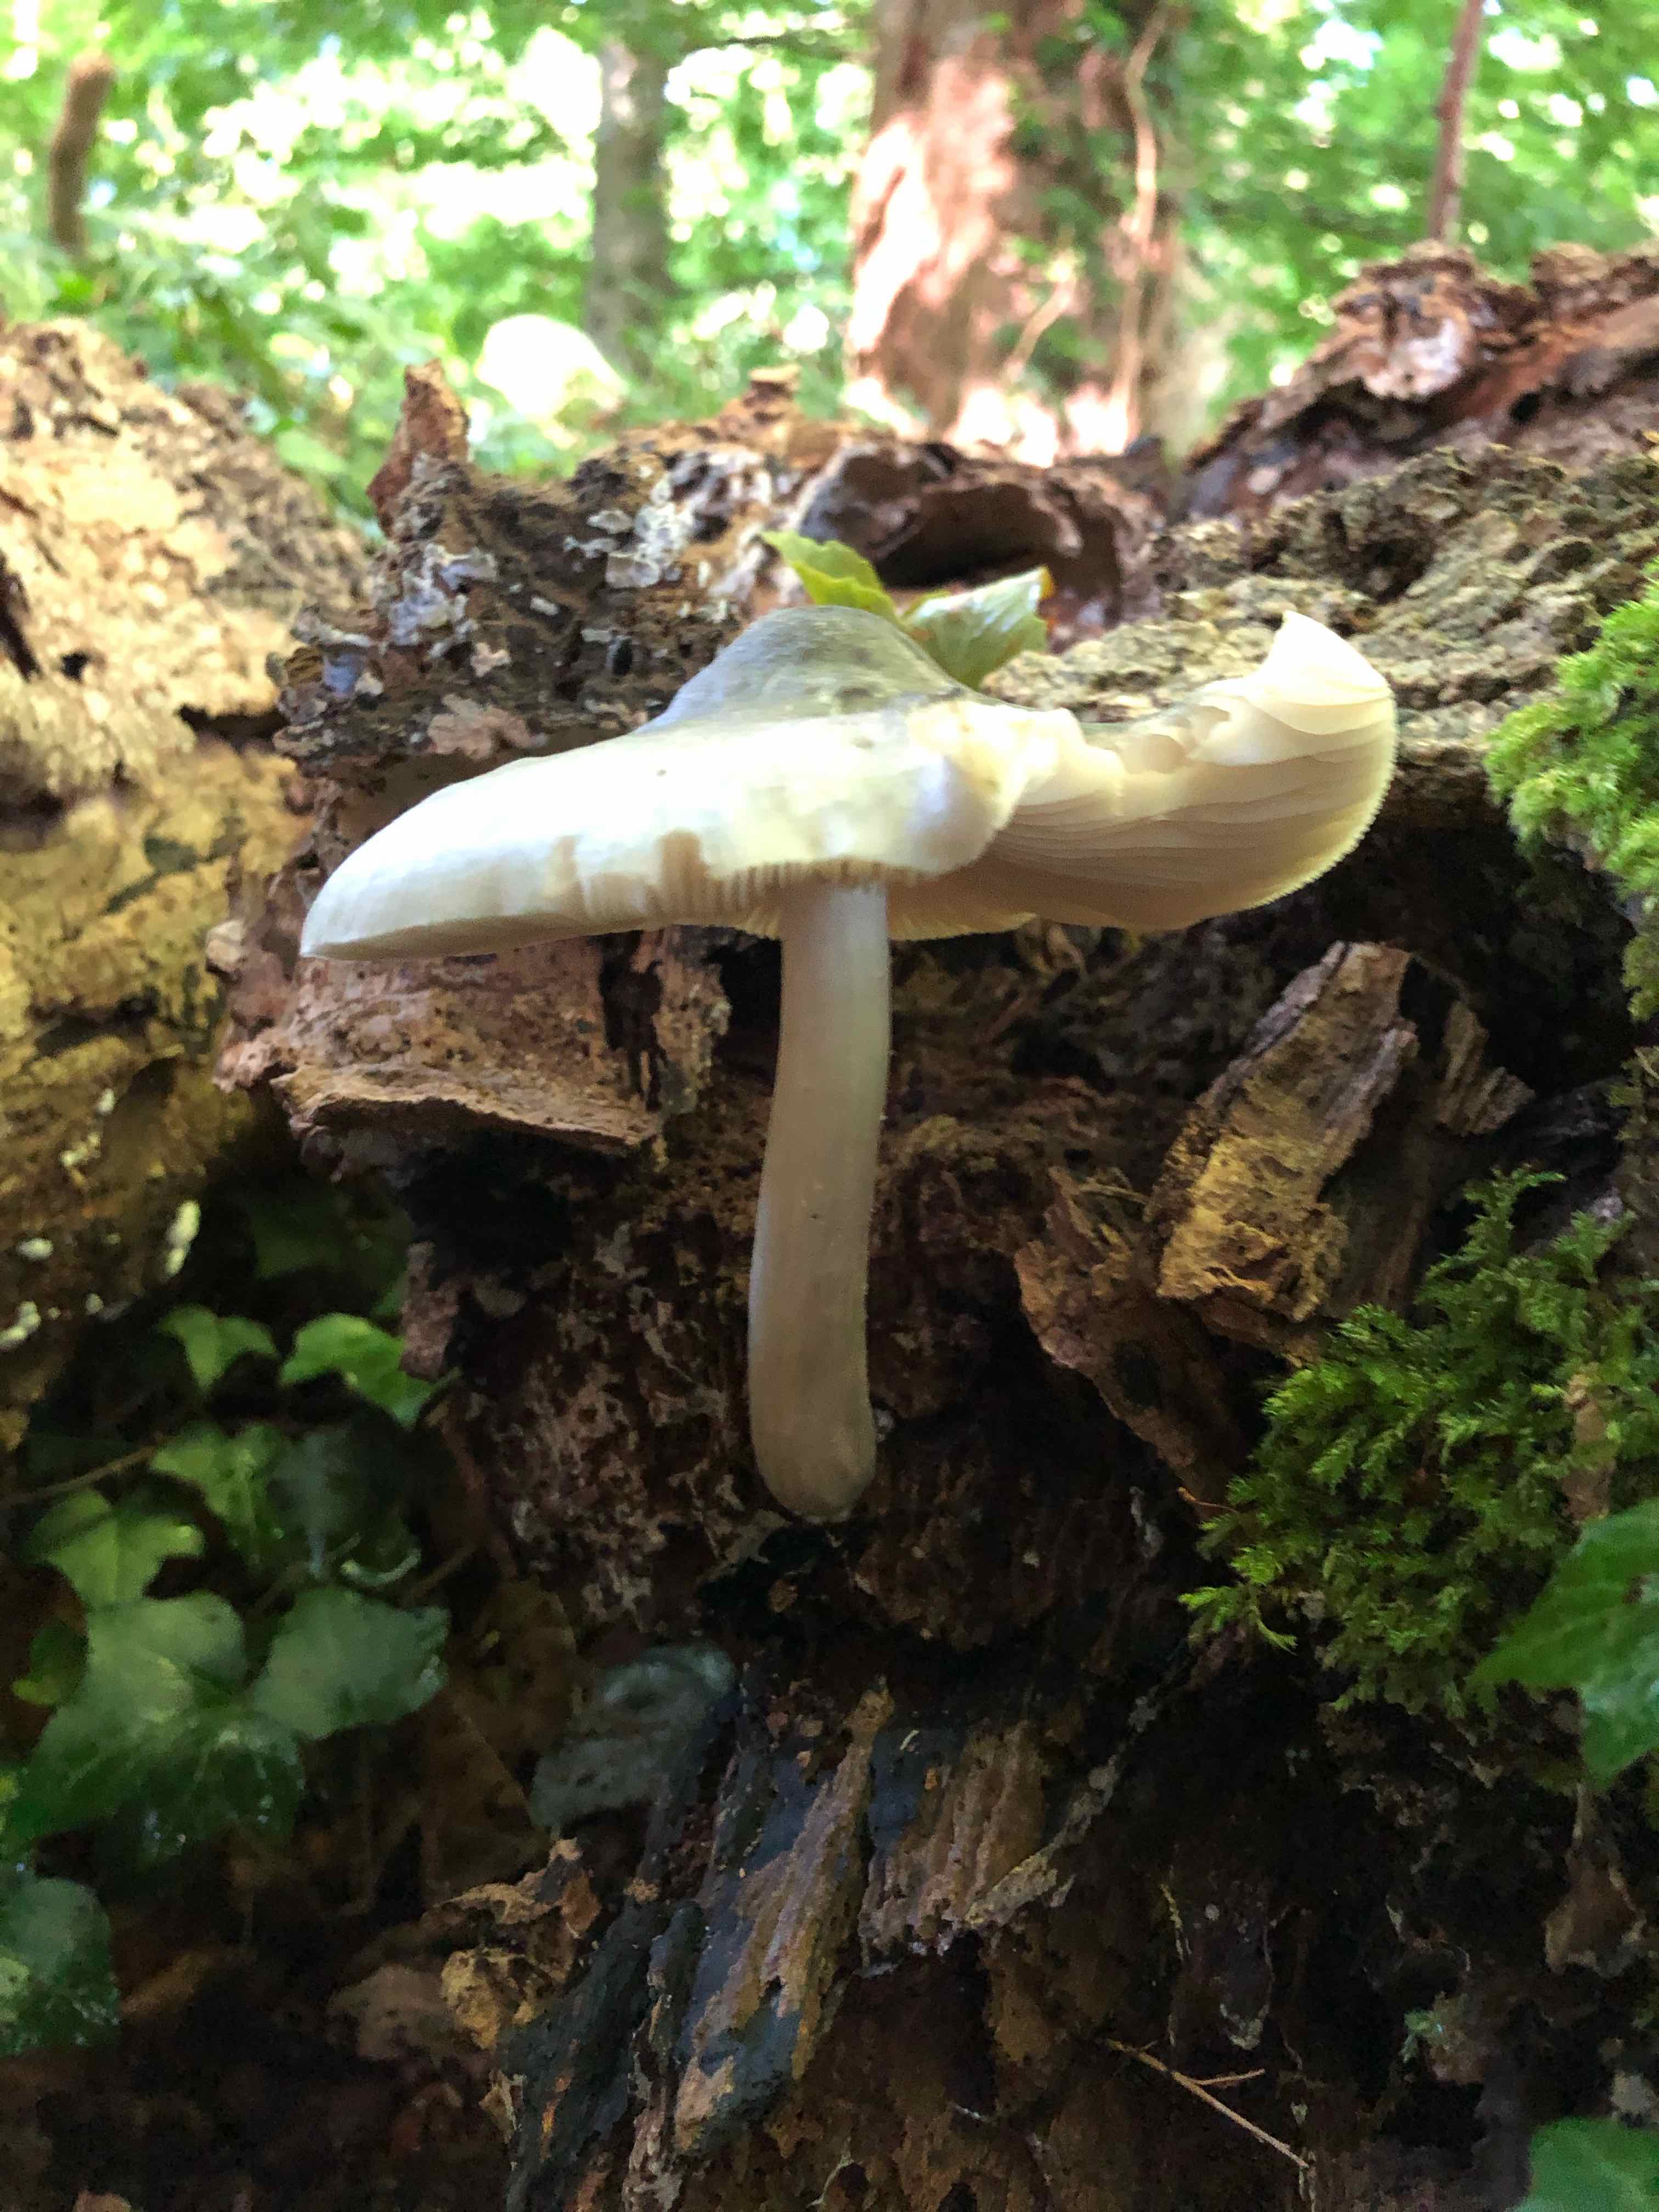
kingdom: Fungi
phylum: Basidiomycota
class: Agaricomycetes
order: Agaricales
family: Pluteaceae
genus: Pluteus
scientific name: Pluteus salicinus
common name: stiv skærmhat
